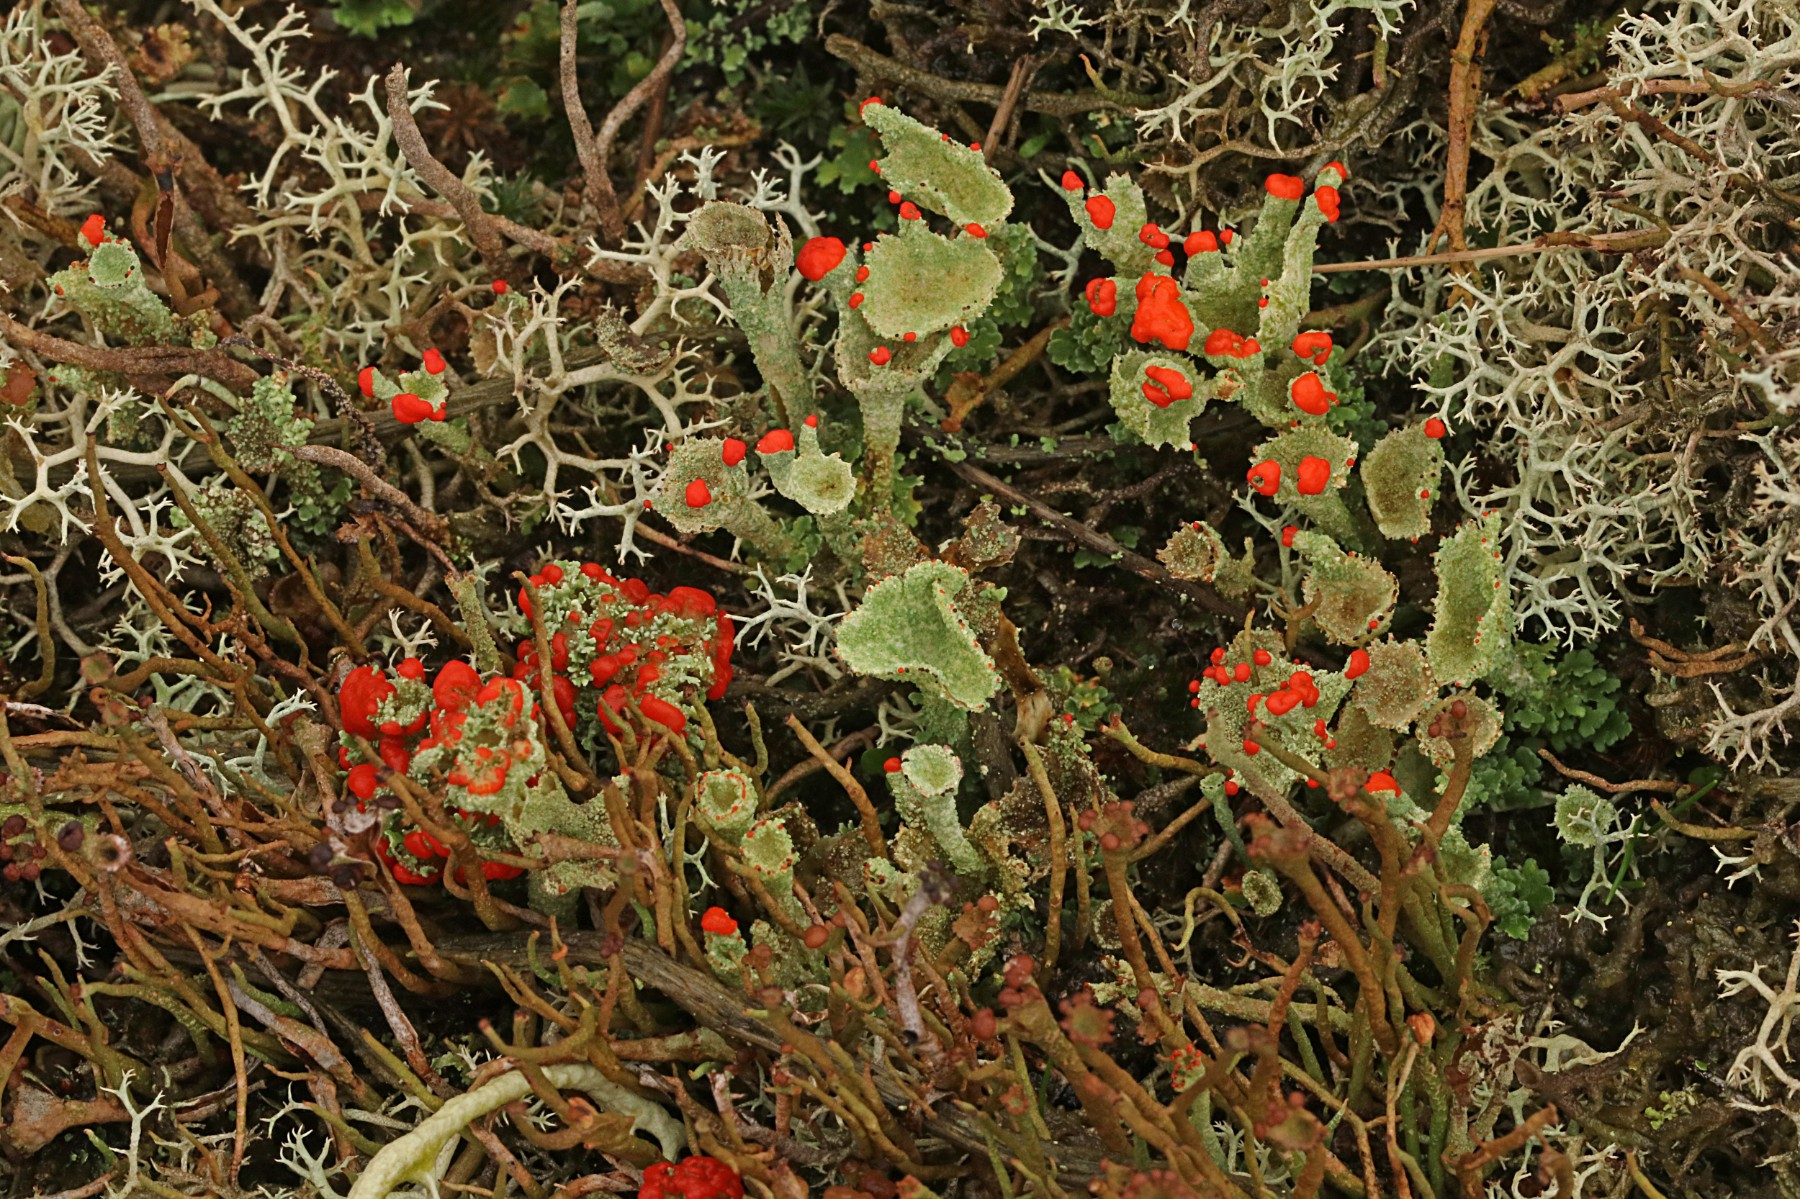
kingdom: Fungi
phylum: Ascomycota
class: Lecanoromycetes
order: Lecanorales
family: Cladoniaceae
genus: Cladonia
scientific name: Cladonia diversa
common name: rød bægerlav
